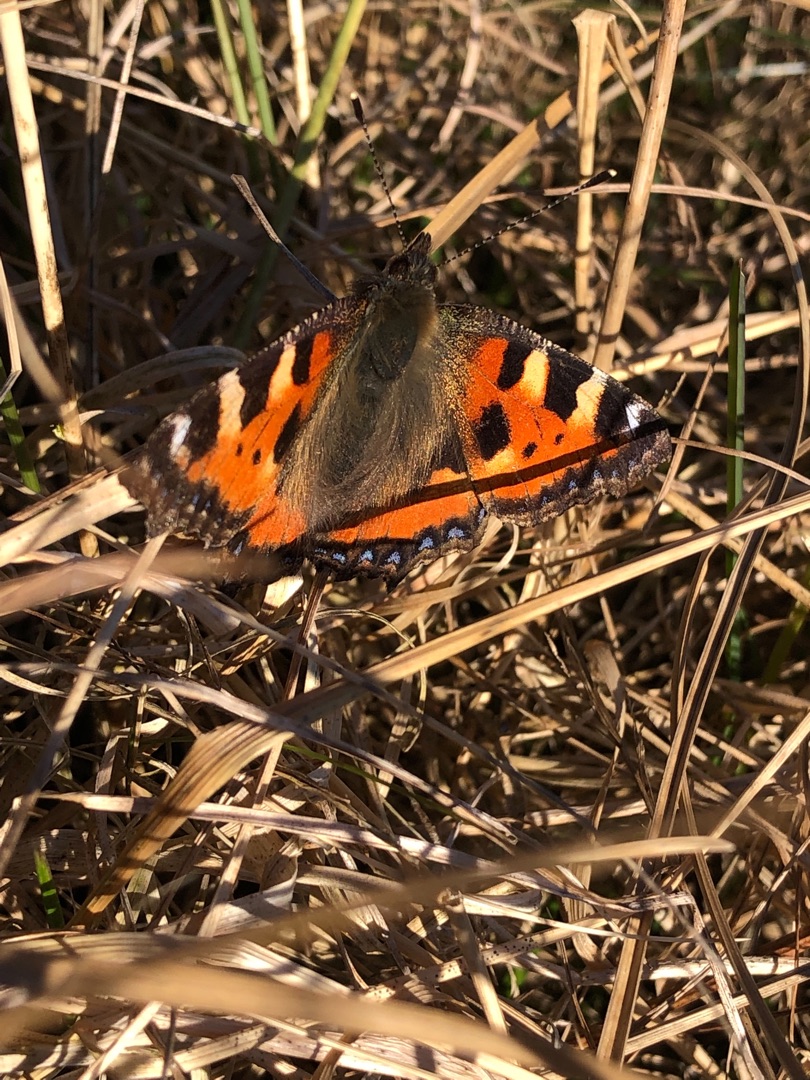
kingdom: Animalia
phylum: Arthropoda
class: Insecta
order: Lepidoptera
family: Nymphalidae
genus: Aglais
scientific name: Aglais urticae
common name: Nældens takvinge
